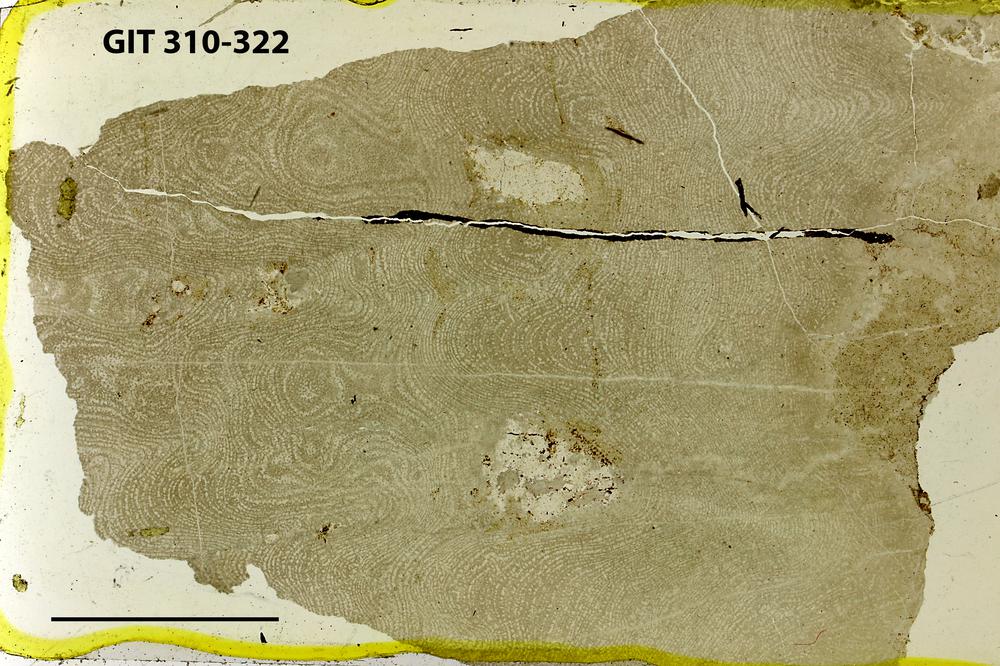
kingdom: Animalia
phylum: Porifera
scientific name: Porifera
